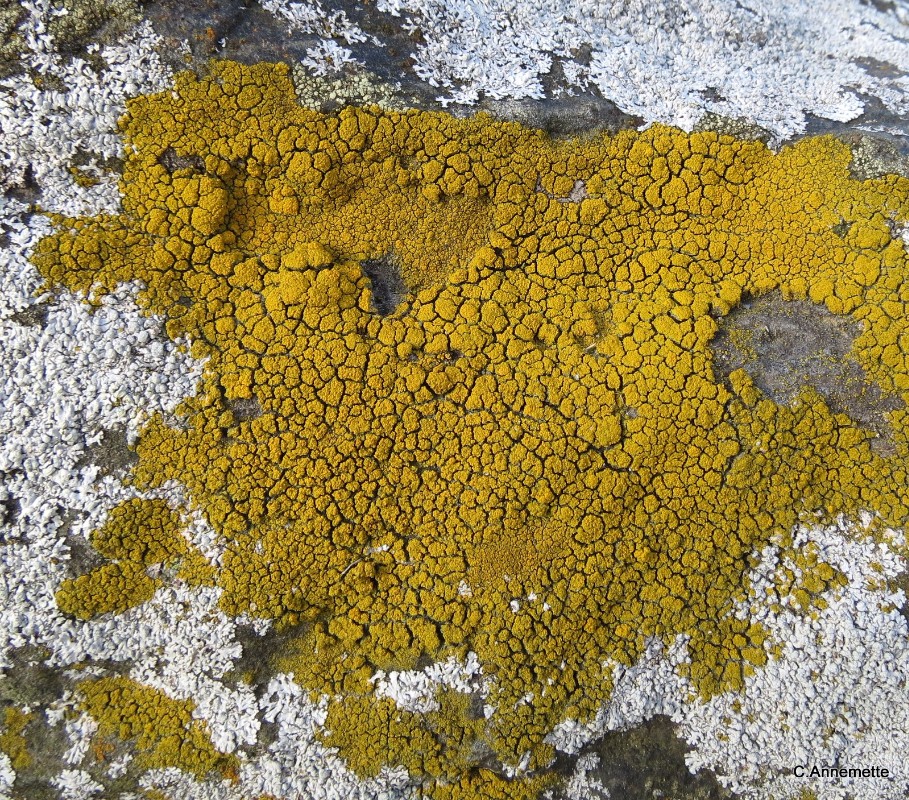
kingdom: Fungi
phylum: Ascomycota
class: Candelariomycetes
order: Candelariales
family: Candelariaceae
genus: Candelariella
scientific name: Candelariella vitellina
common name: almindelig æggeblommelav
